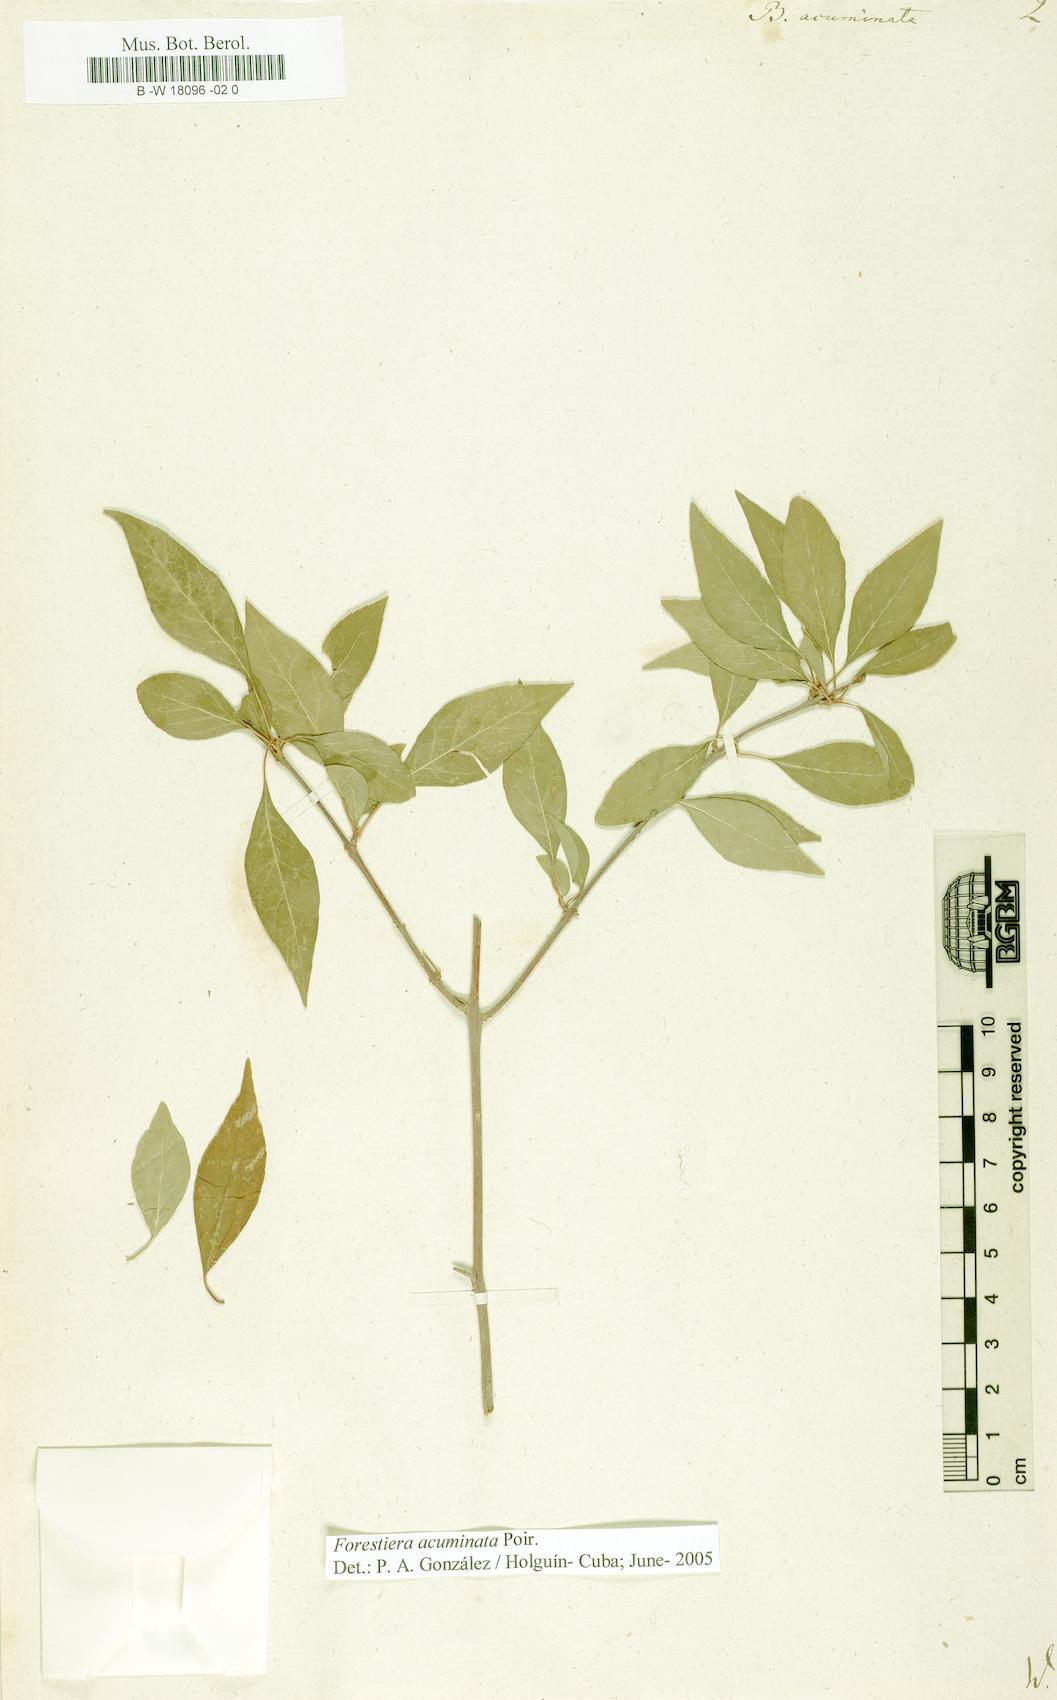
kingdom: Plantae
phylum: Tracheophyta
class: Magnoliopsida
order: Lamiales
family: Oleaceae
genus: Forestiera
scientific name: Forestiera acuminata
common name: Swamp-privet
